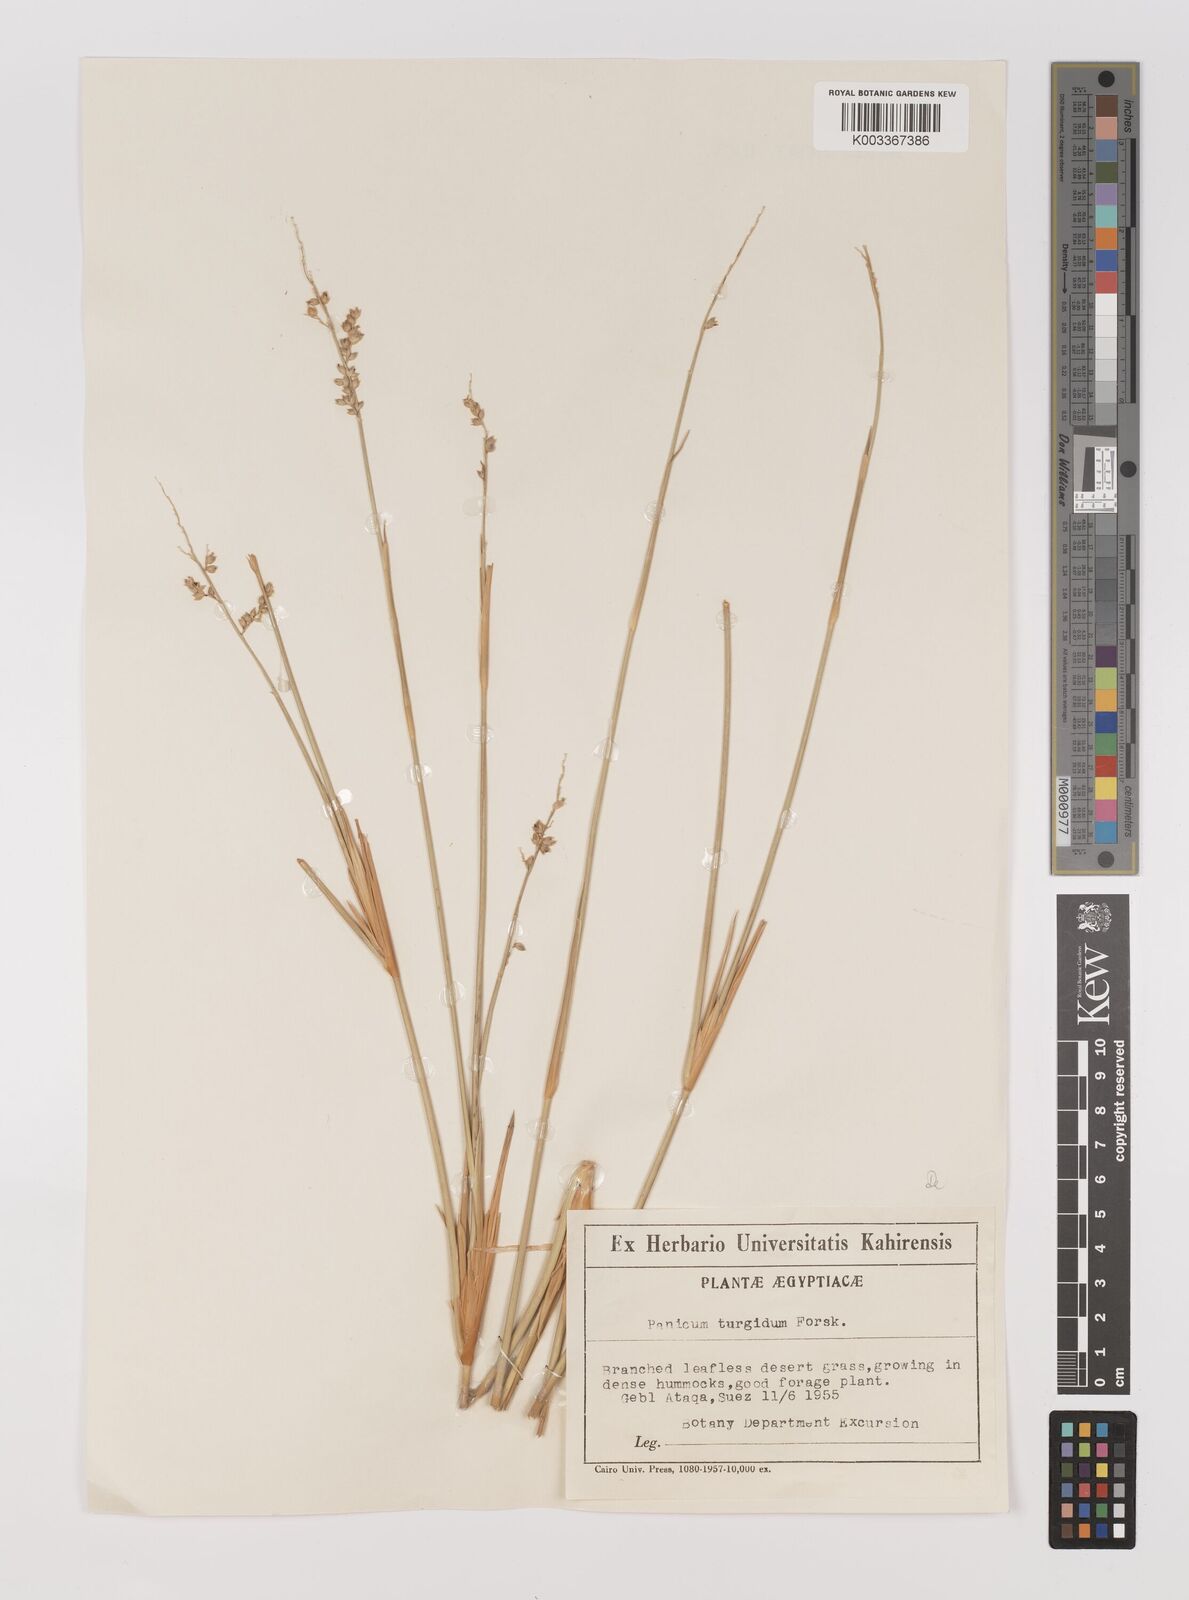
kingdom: Plantae
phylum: Tracheophyta
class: Liliopsida
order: Poales
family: Poaceae
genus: Panicum
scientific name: Panicum turgidum
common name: Desert grass
